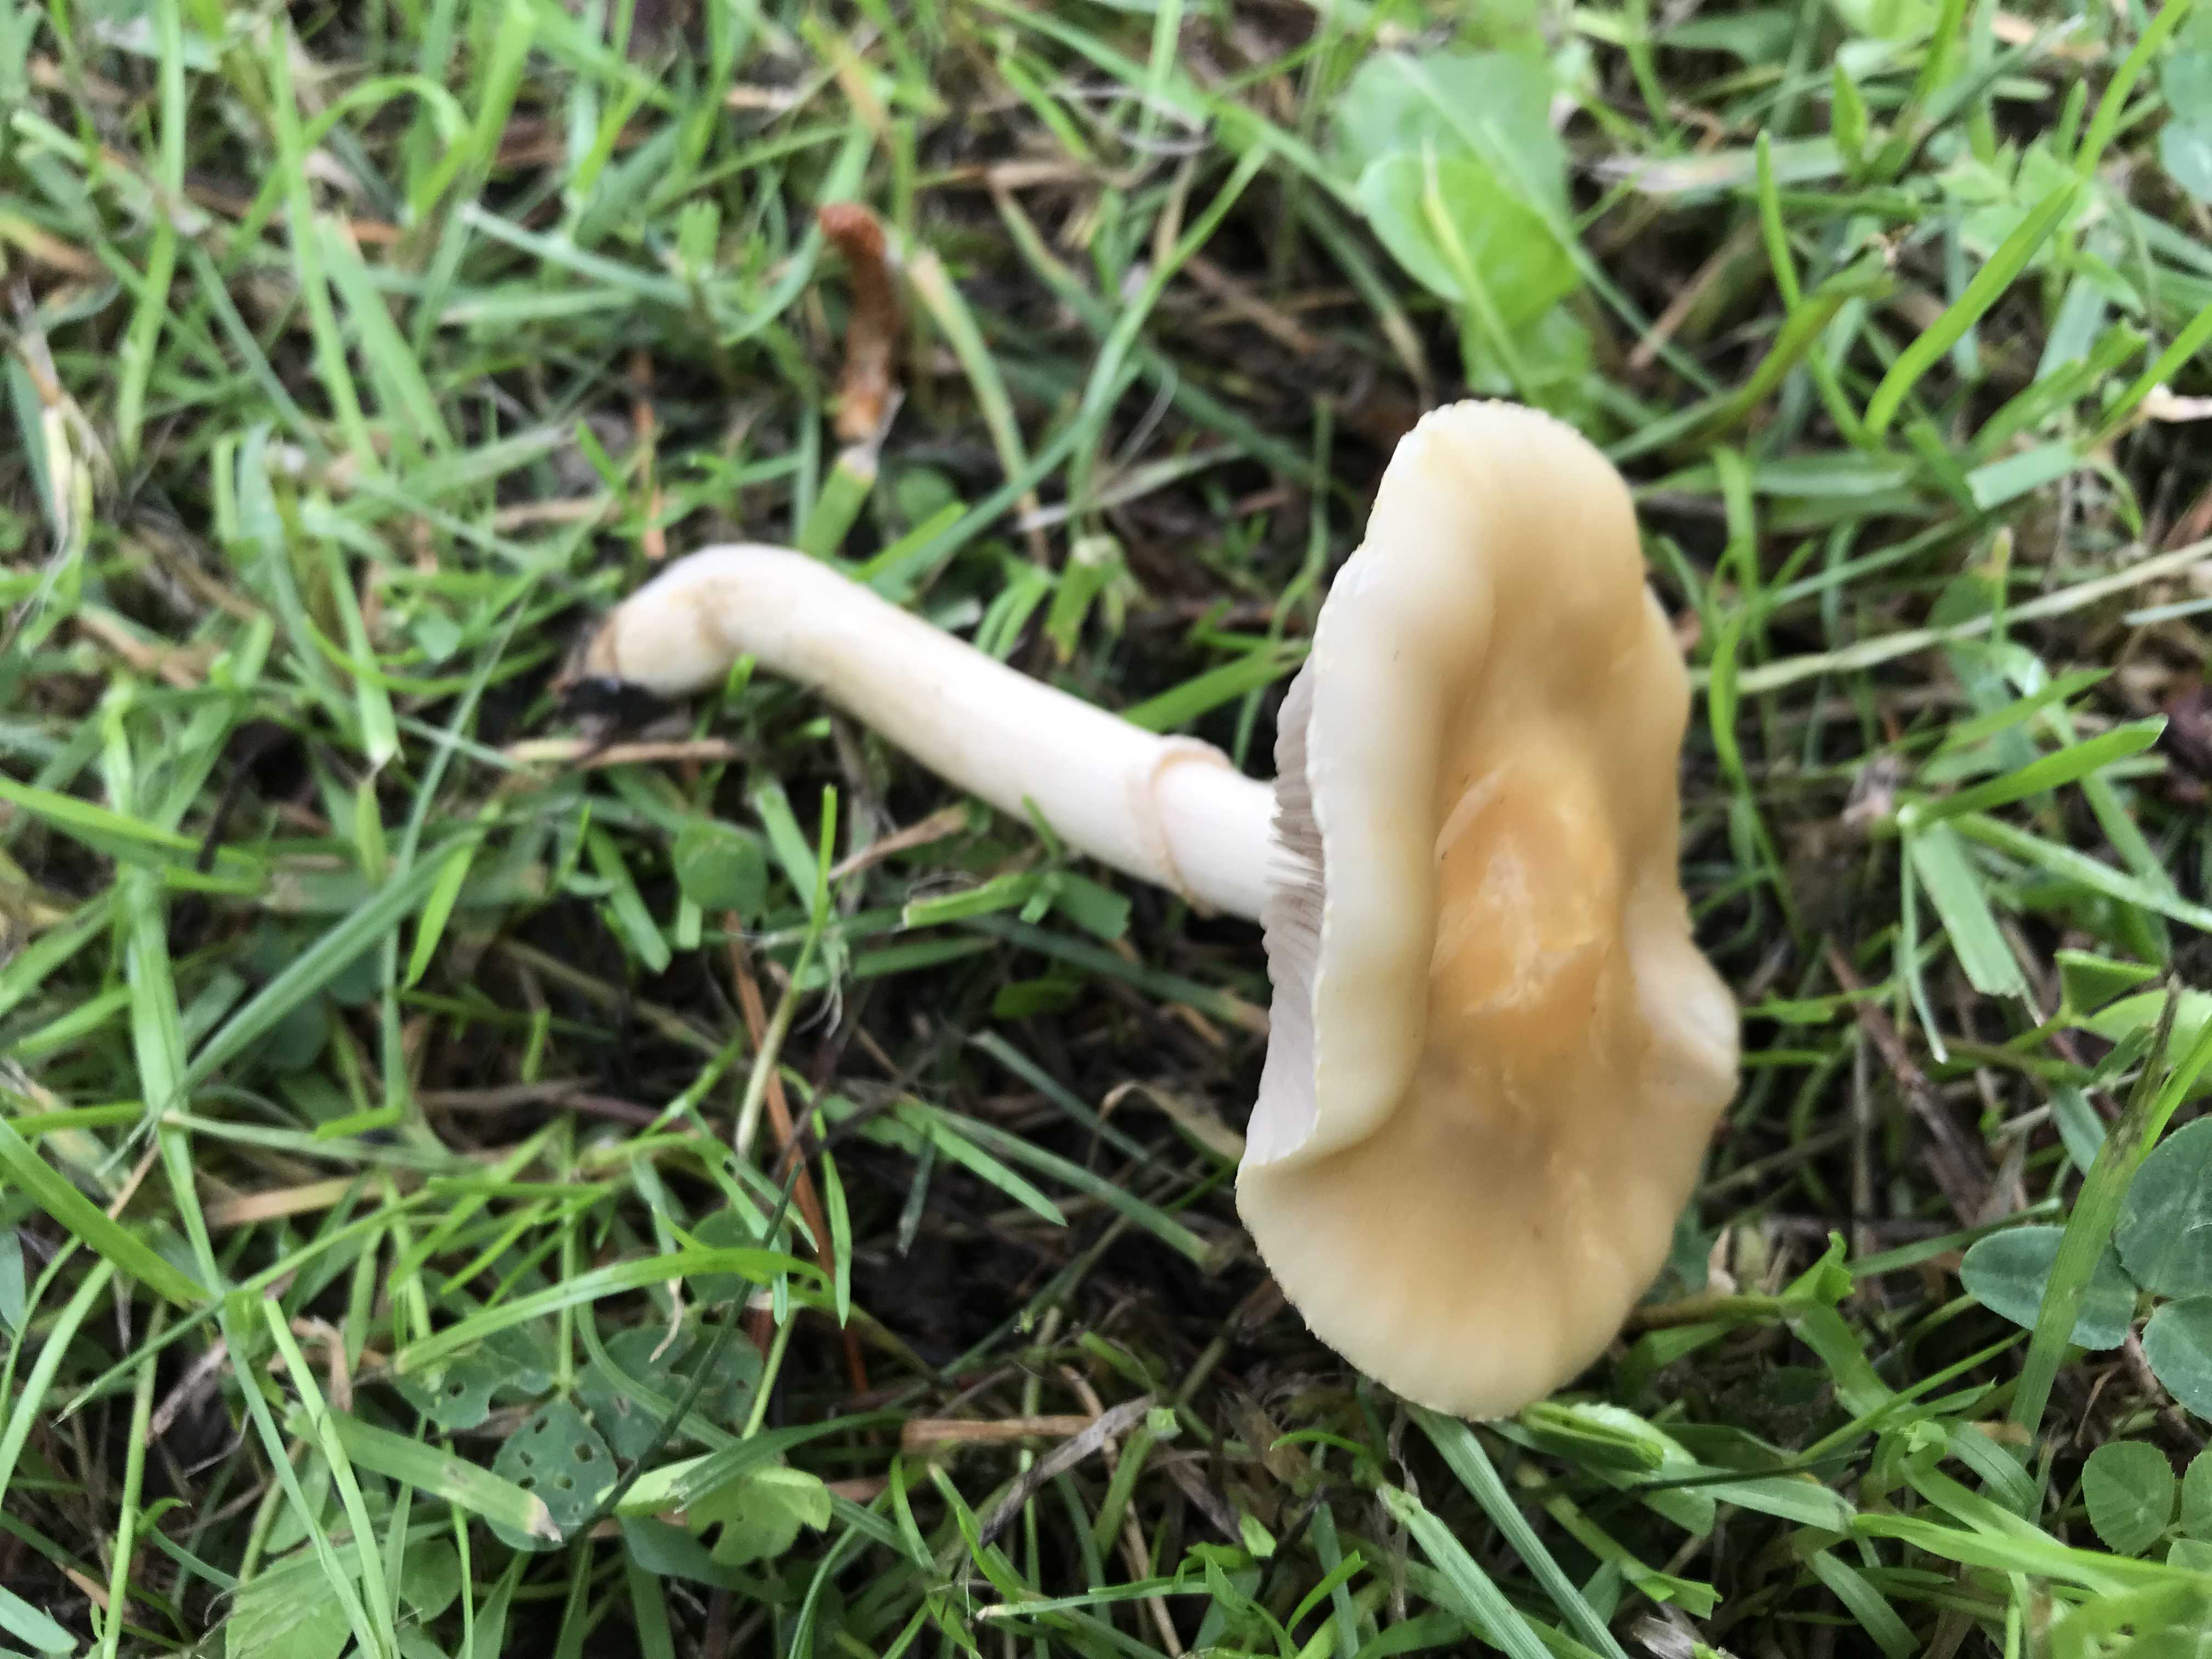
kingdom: Fungi
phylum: Basidiomycota
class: Agaricomycetes
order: Agaricales
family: Hymenogastraceae
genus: Psilocybe
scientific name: Psilocybe coronilla
